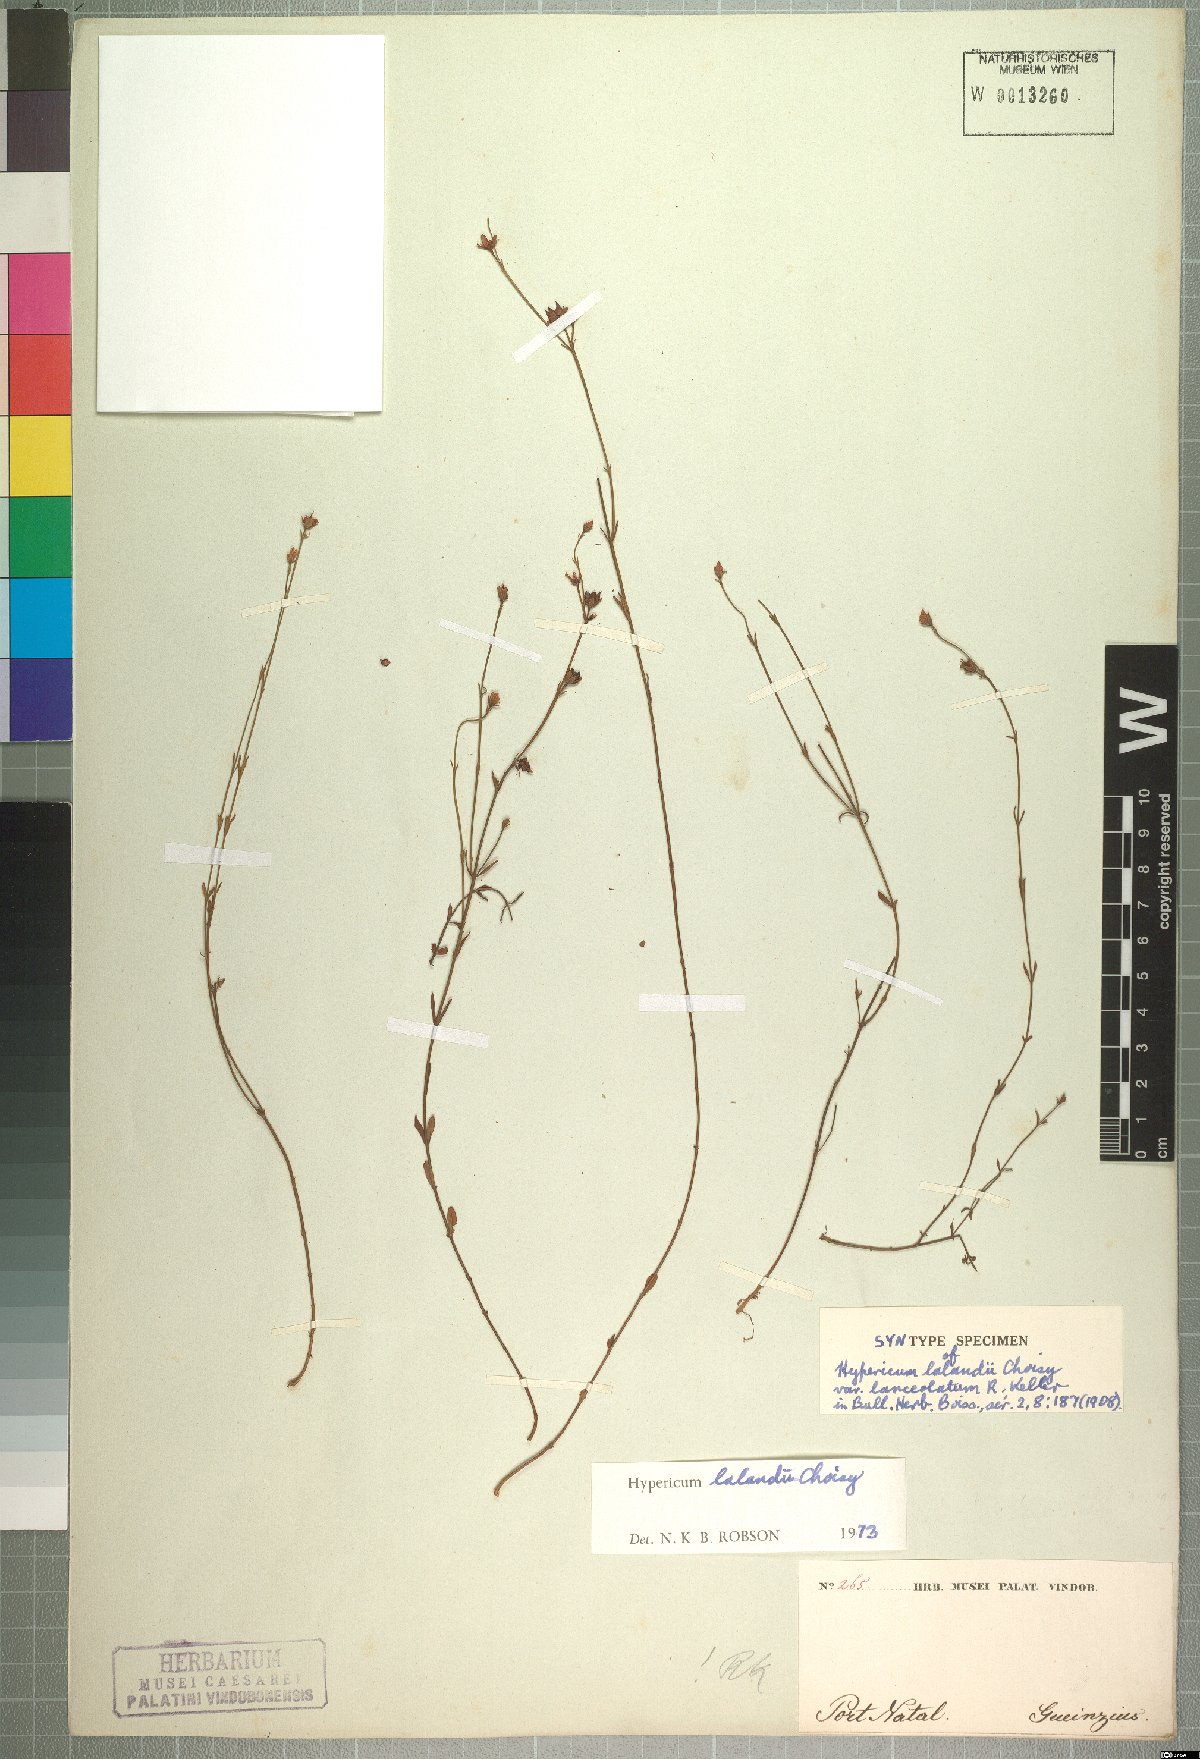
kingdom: Plantae
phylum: Tracheophyta
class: Magnoliopsida
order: Malpighiales
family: Hypericaceae
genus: Hypericum
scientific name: Hypericum lalandii
